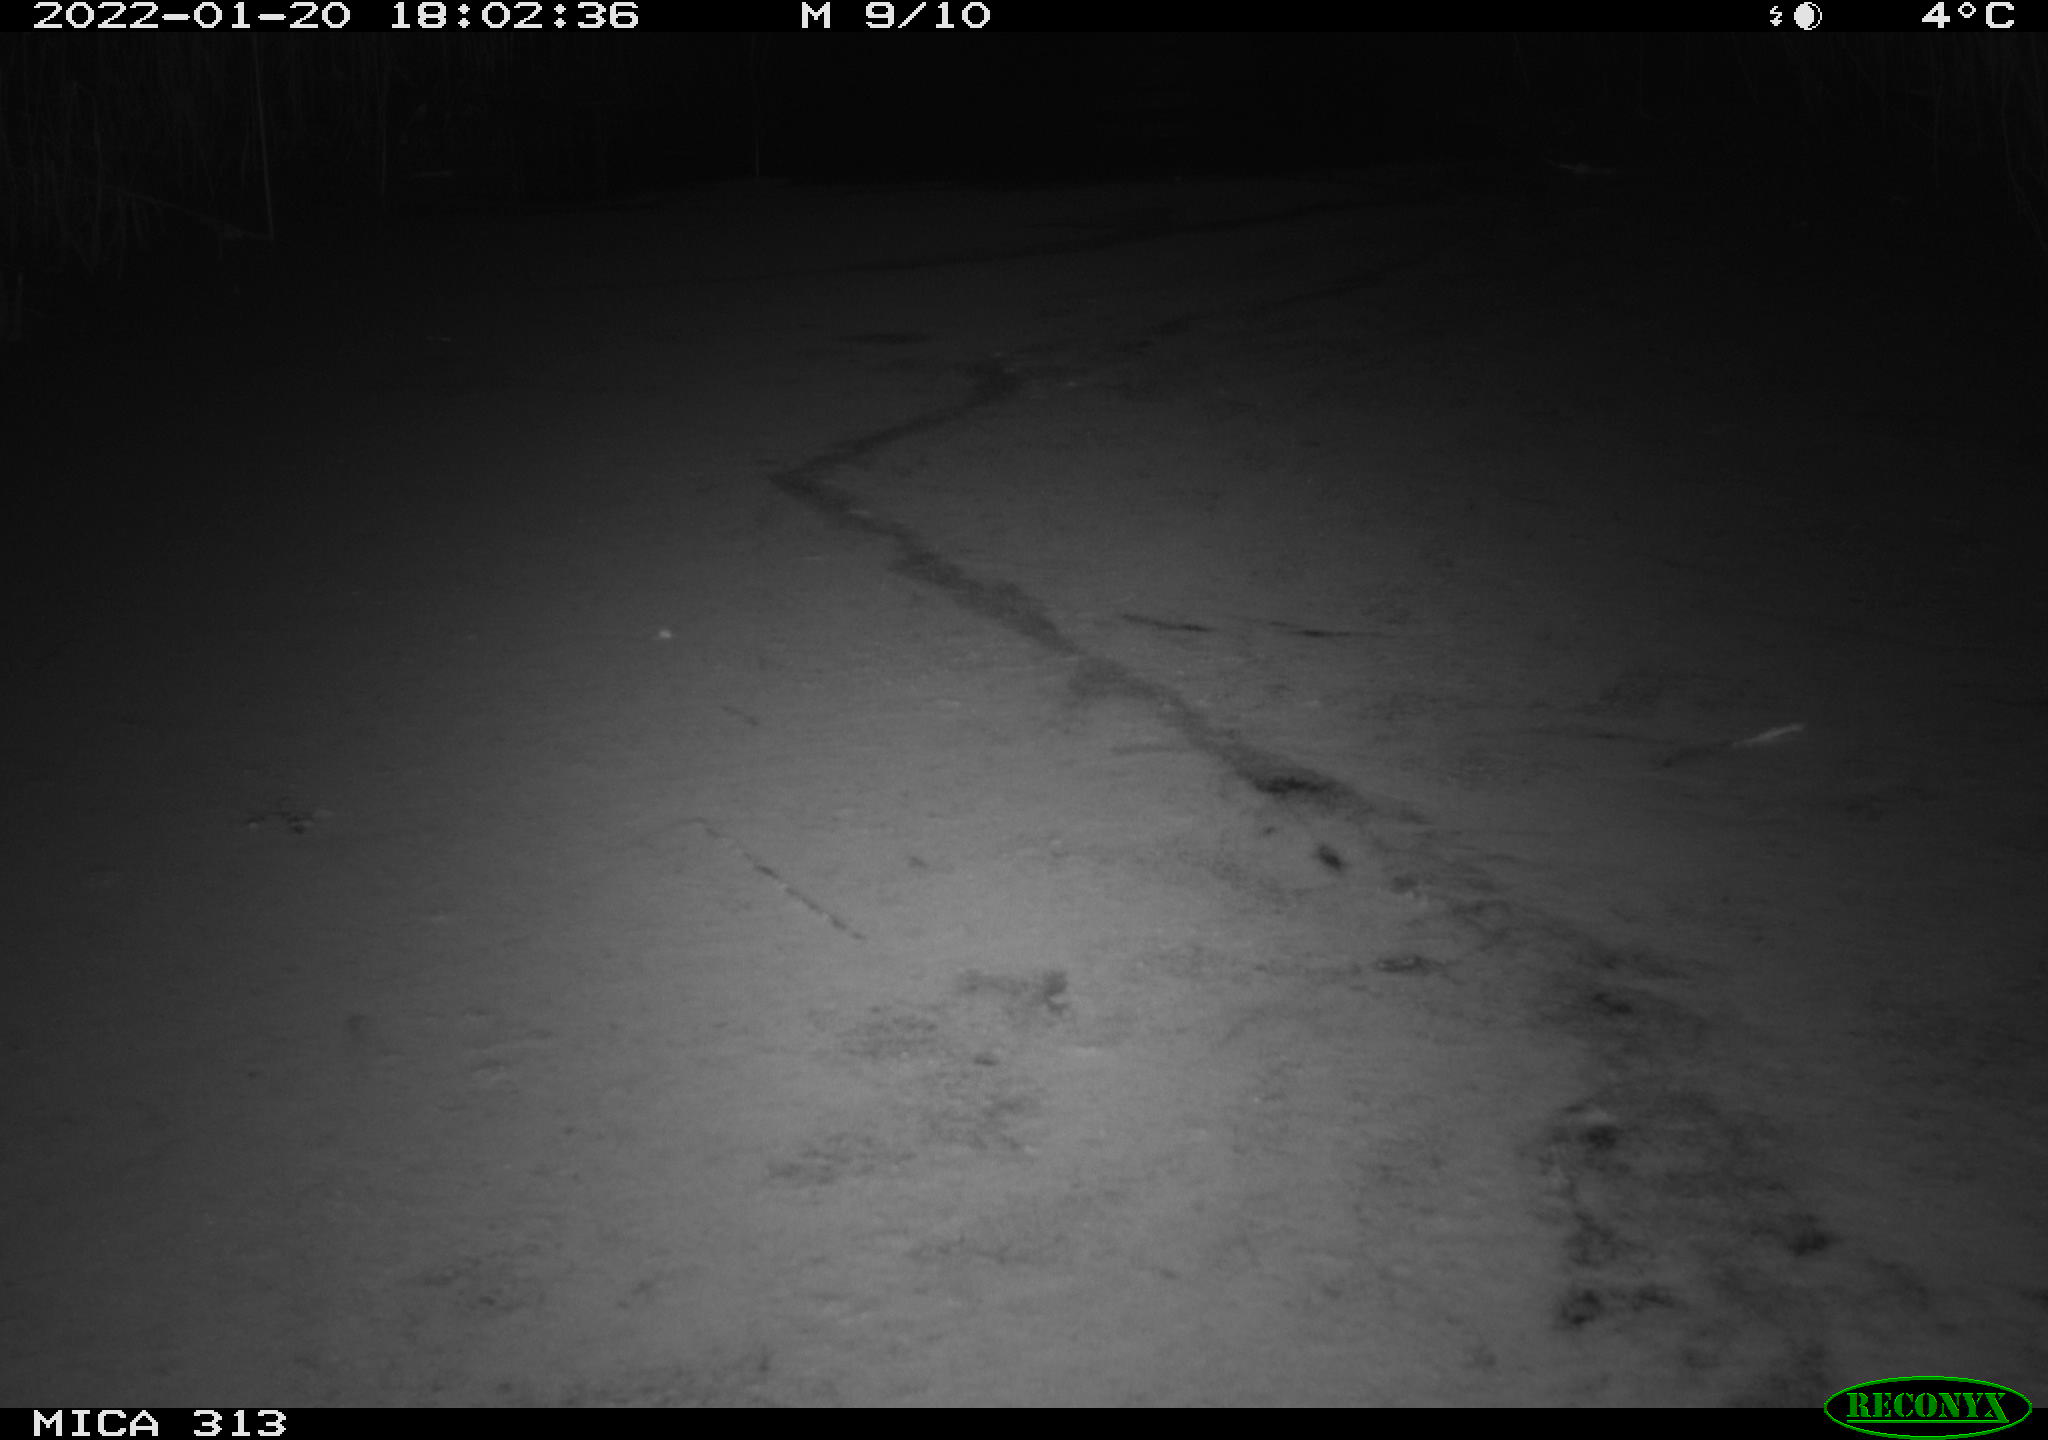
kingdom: Animalia
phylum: Chordata
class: Aves
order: Gruiformes
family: Rallidae
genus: Gallinula
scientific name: Gallinula chloropus
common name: Common moorhen
